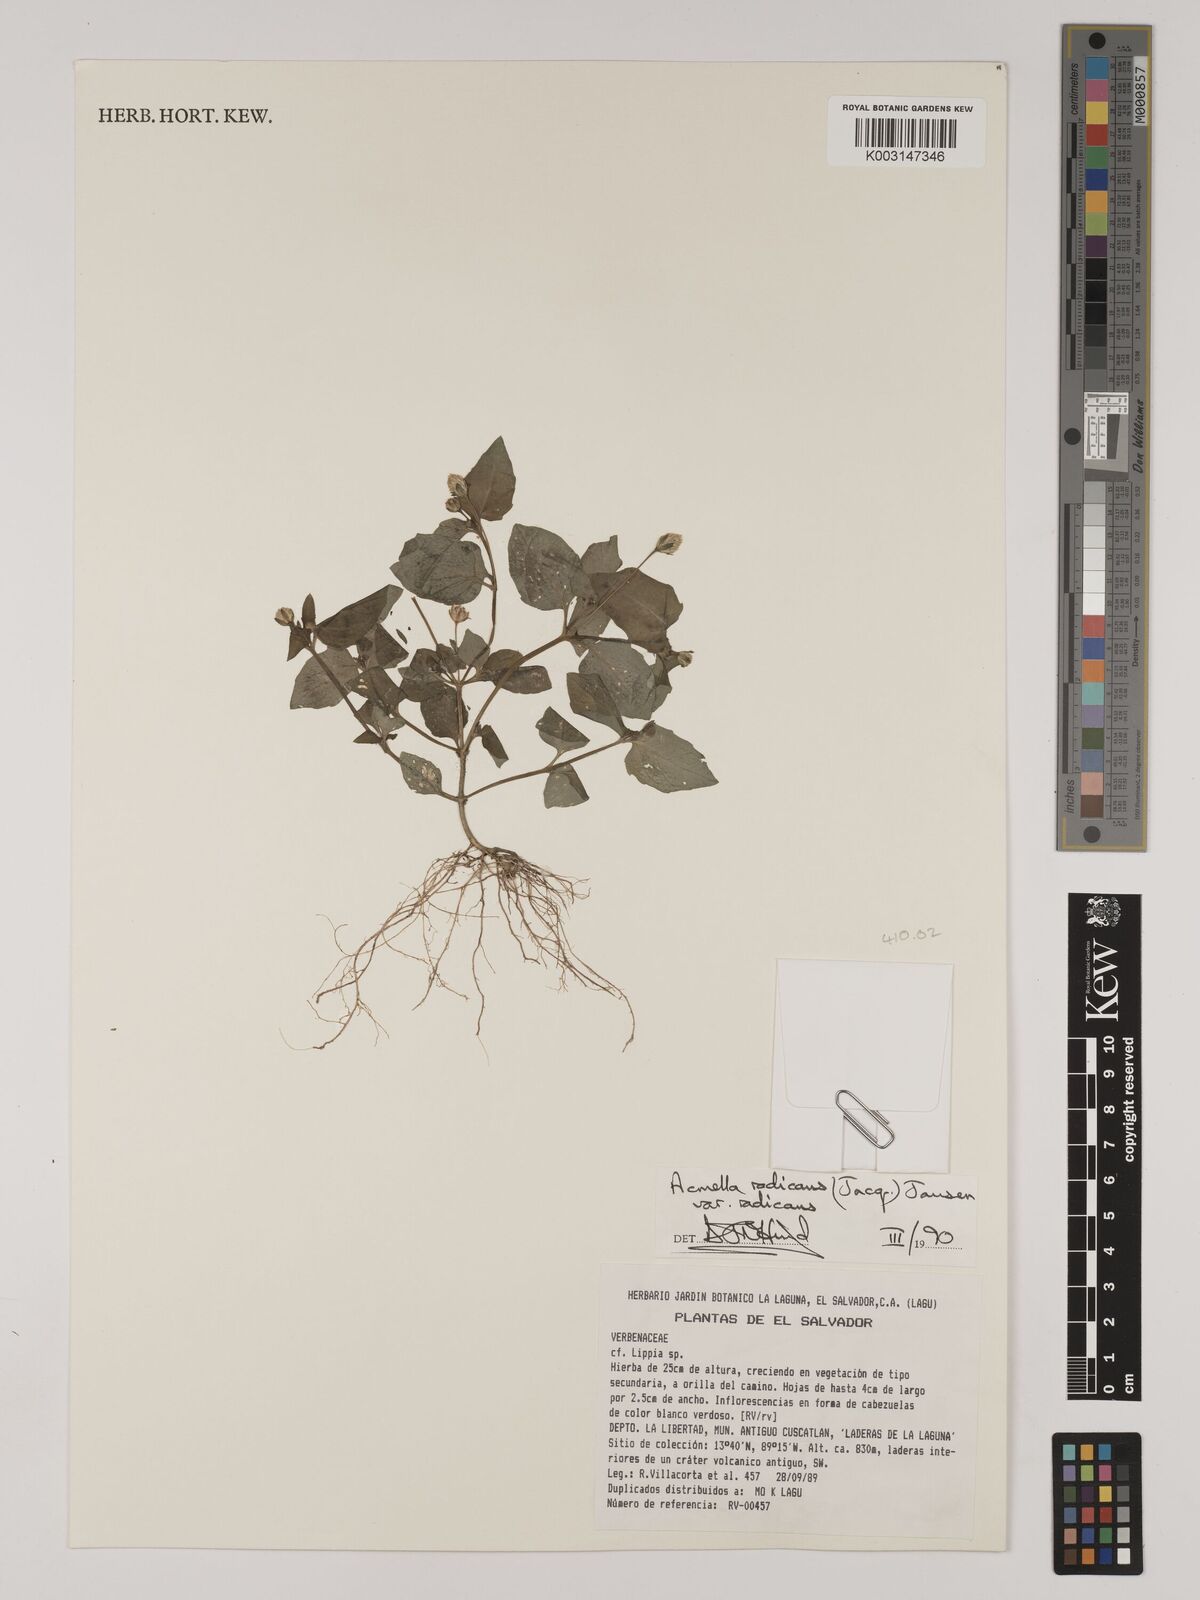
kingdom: Plantae
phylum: Tracheophyta
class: Magnoliopsida
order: Asterales
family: Asteraceae
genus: Acmella
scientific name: Acmella radicans
